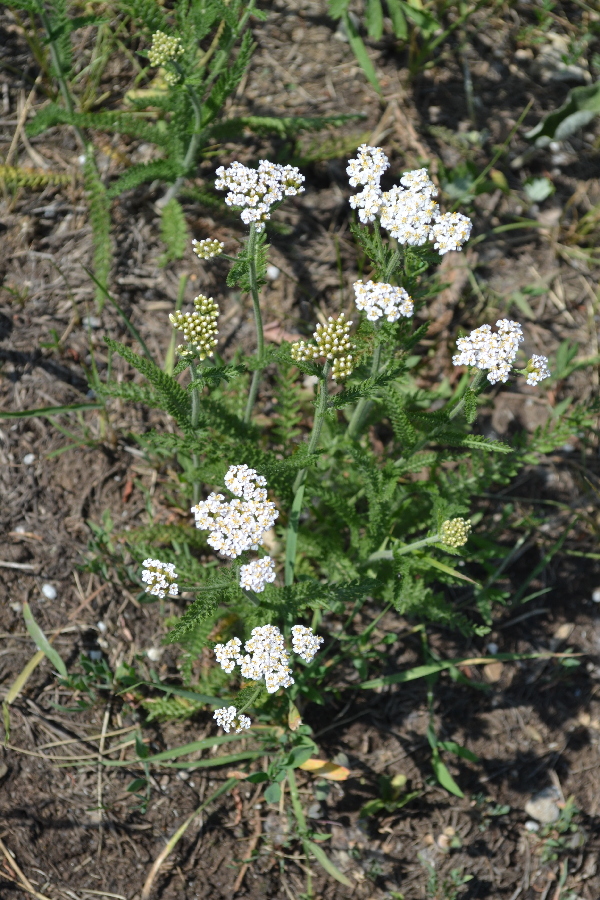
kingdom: Plantae
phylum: Tracheophyta
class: Magnoliopsida
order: Asterales
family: Asteraceae
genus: Achillea
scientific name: Achillea millefolium
